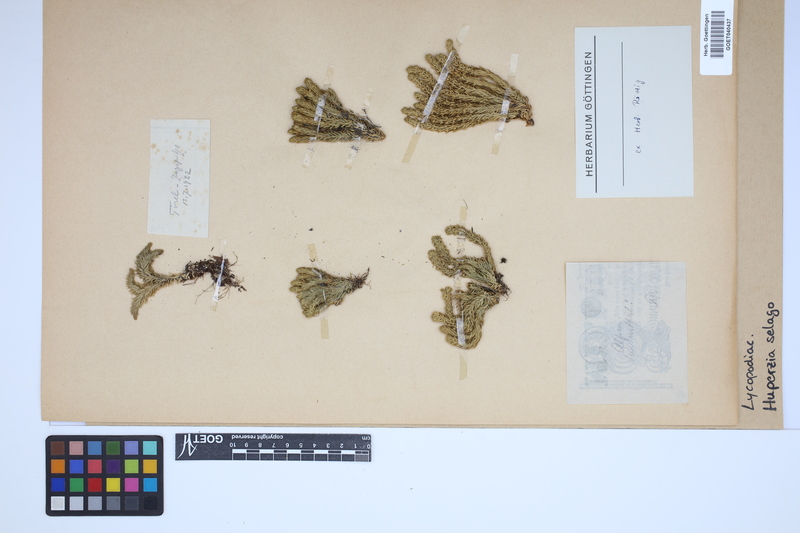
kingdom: Plantae
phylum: Tracheophyta
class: Lycopodiopsida
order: Lycopodiales
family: Lycopodiaceae
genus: Huperzia
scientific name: Huperzia selago
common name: Northern firmoss
